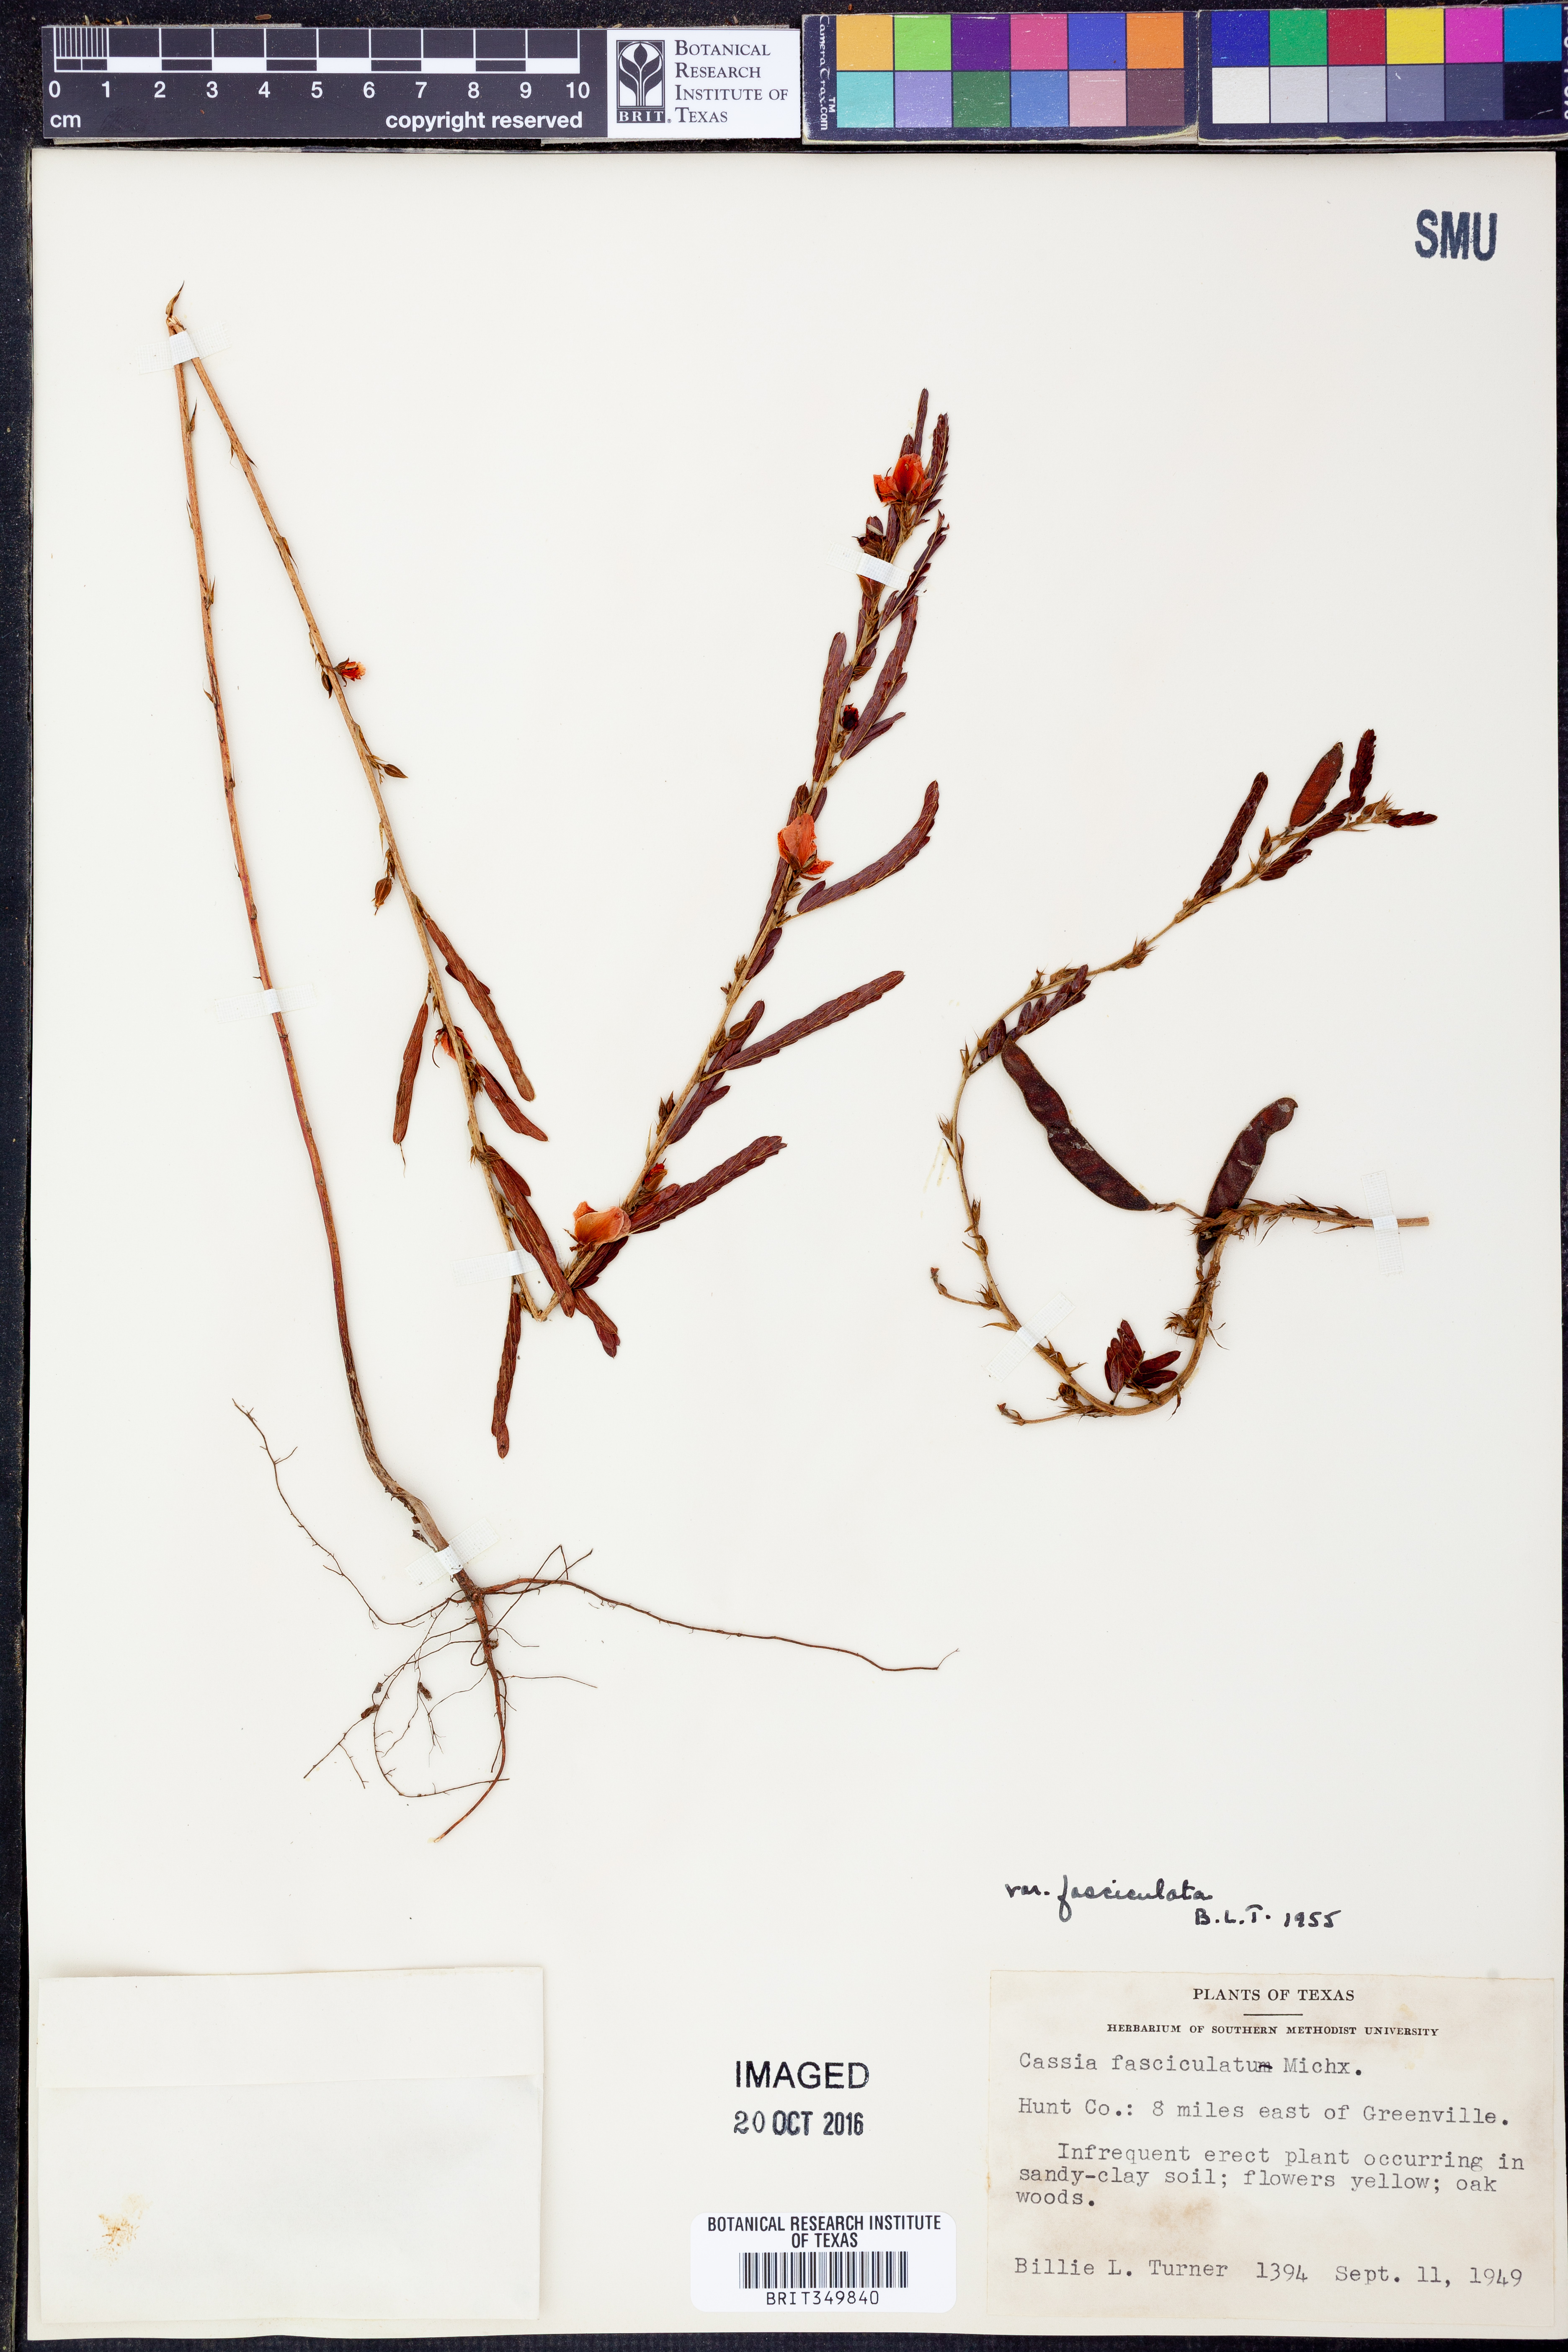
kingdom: Plantae
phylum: Tracheophyta
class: Magnoliopsida
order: Fabales
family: Fabaceae
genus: Chamaecrista
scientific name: Chamaecrista fasciculata
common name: Golden cassia
